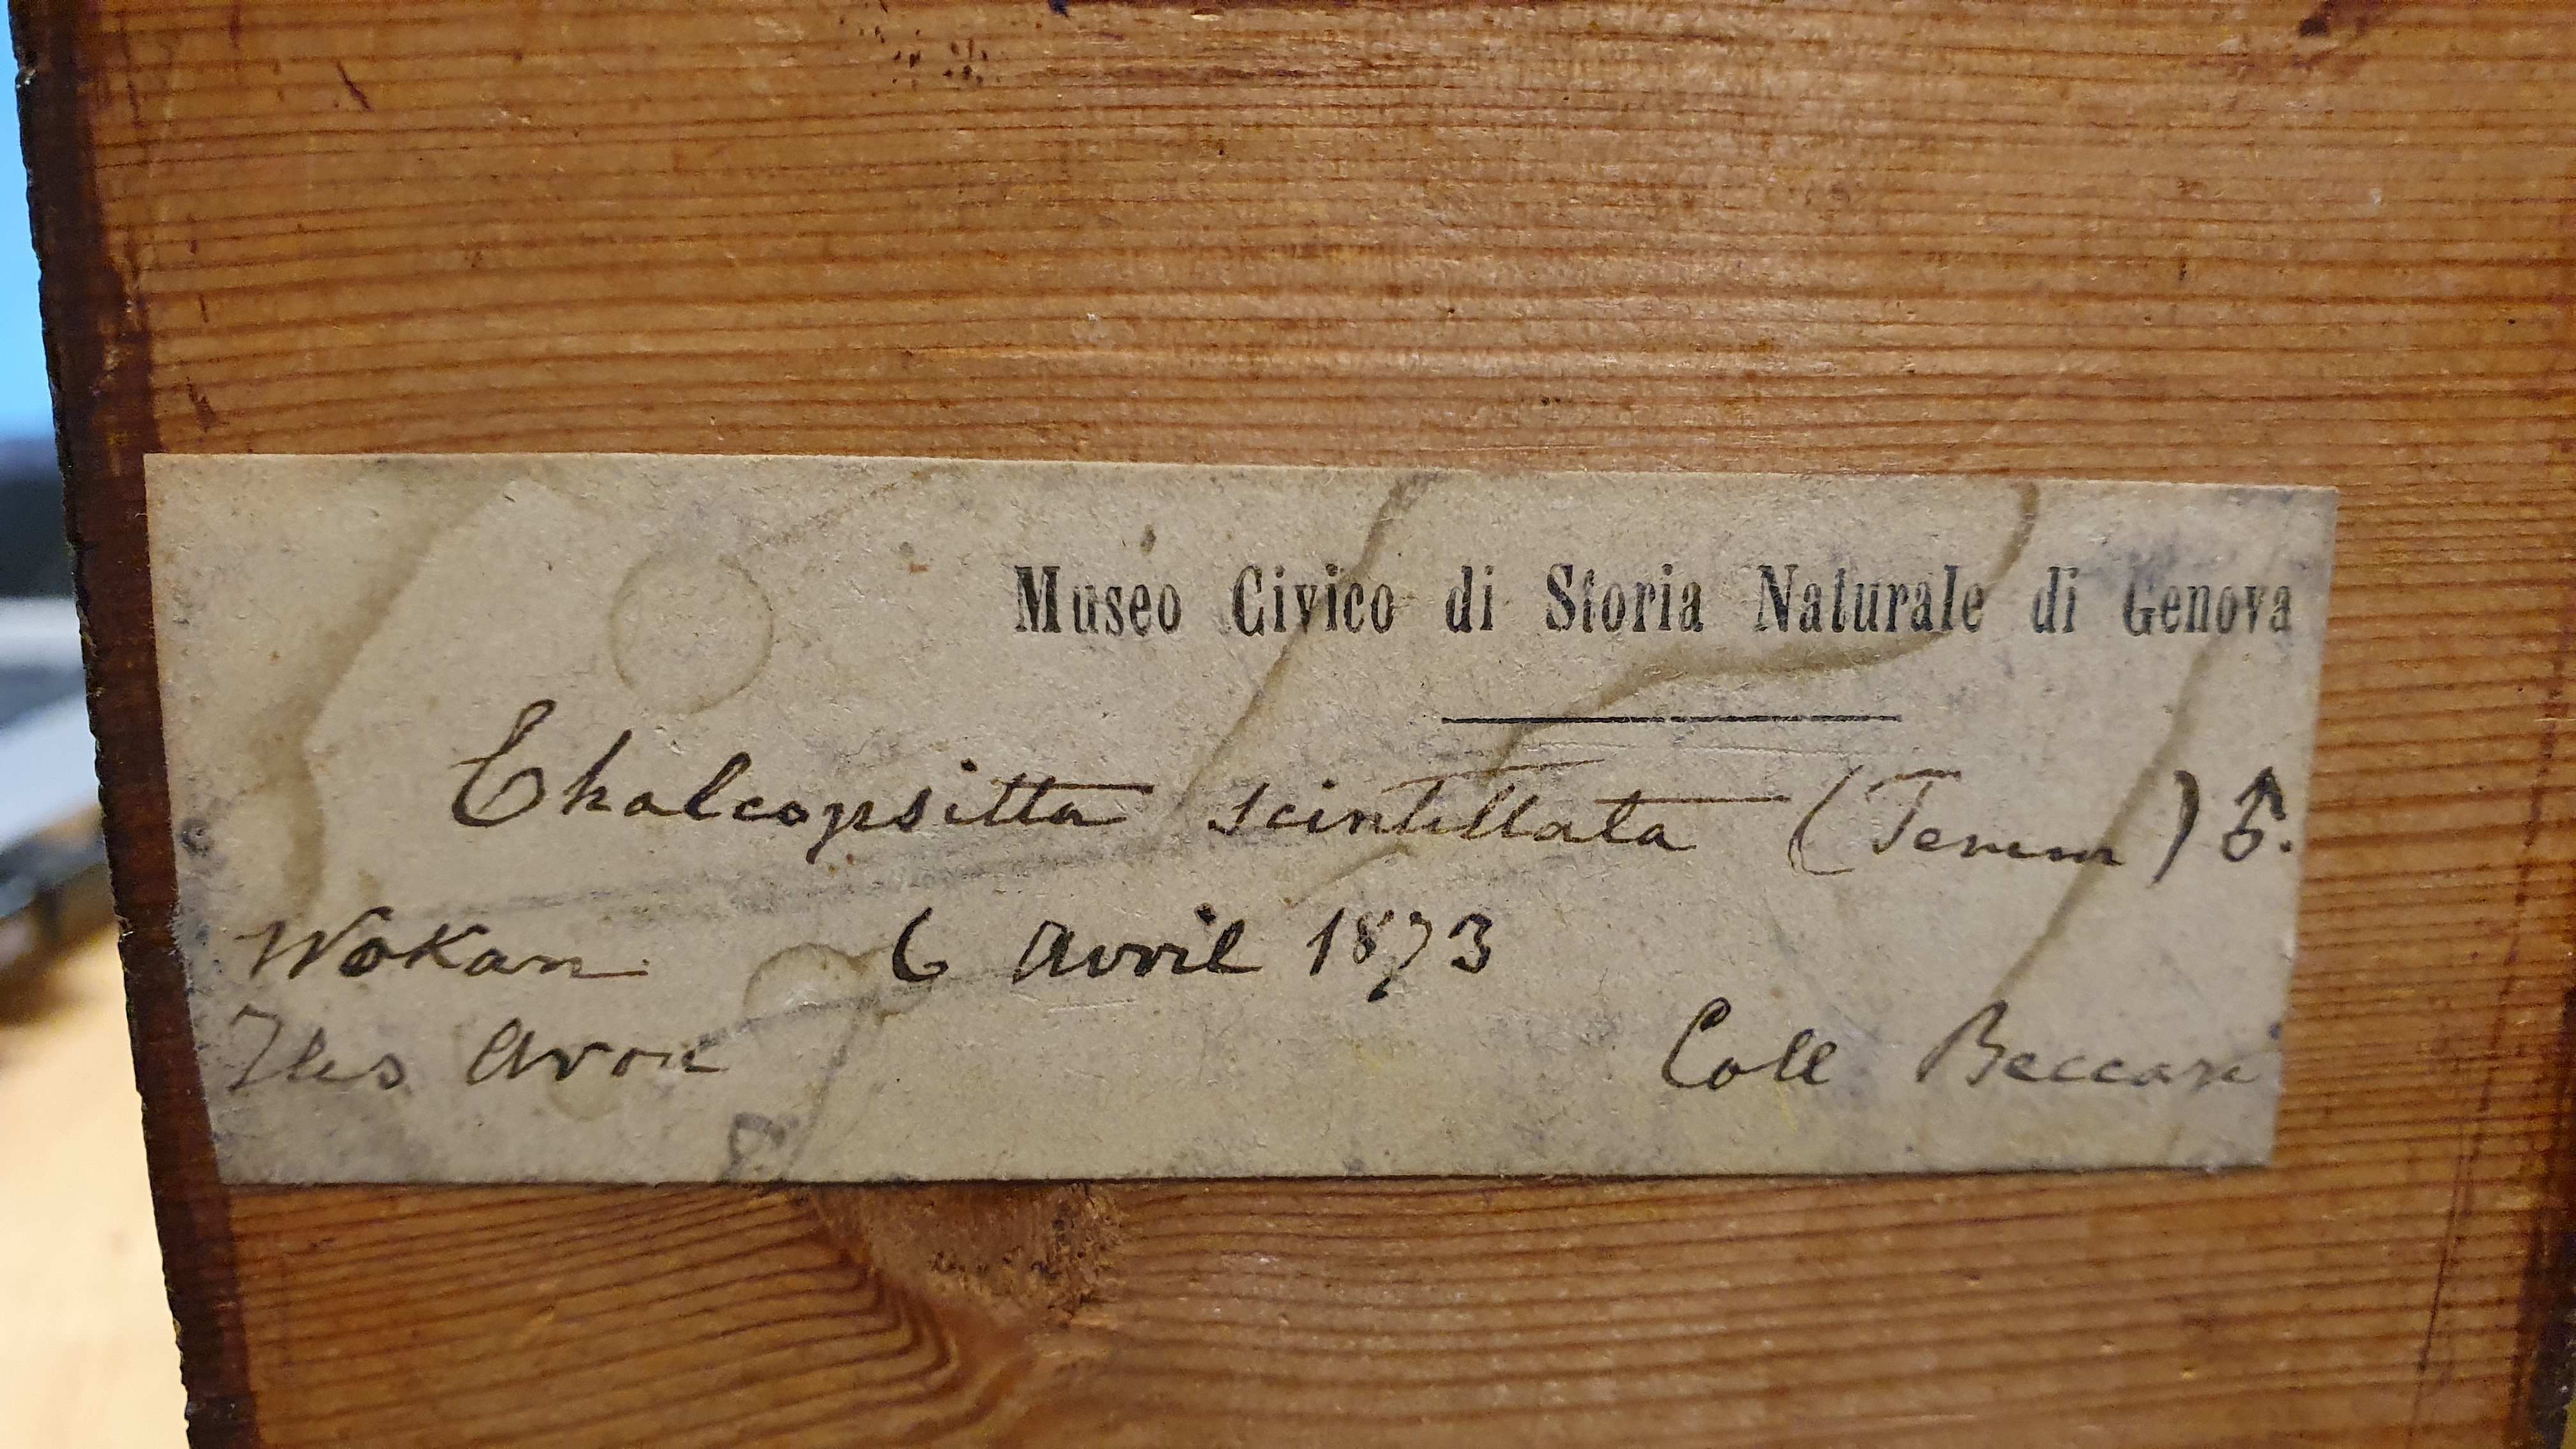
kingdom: Animalia
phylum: Chordata
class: Aves
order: Psittaciformes
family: Psittacidae
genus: Chalcopsitta
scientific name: Chalcopsitta sintillata
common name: Streaked lory
